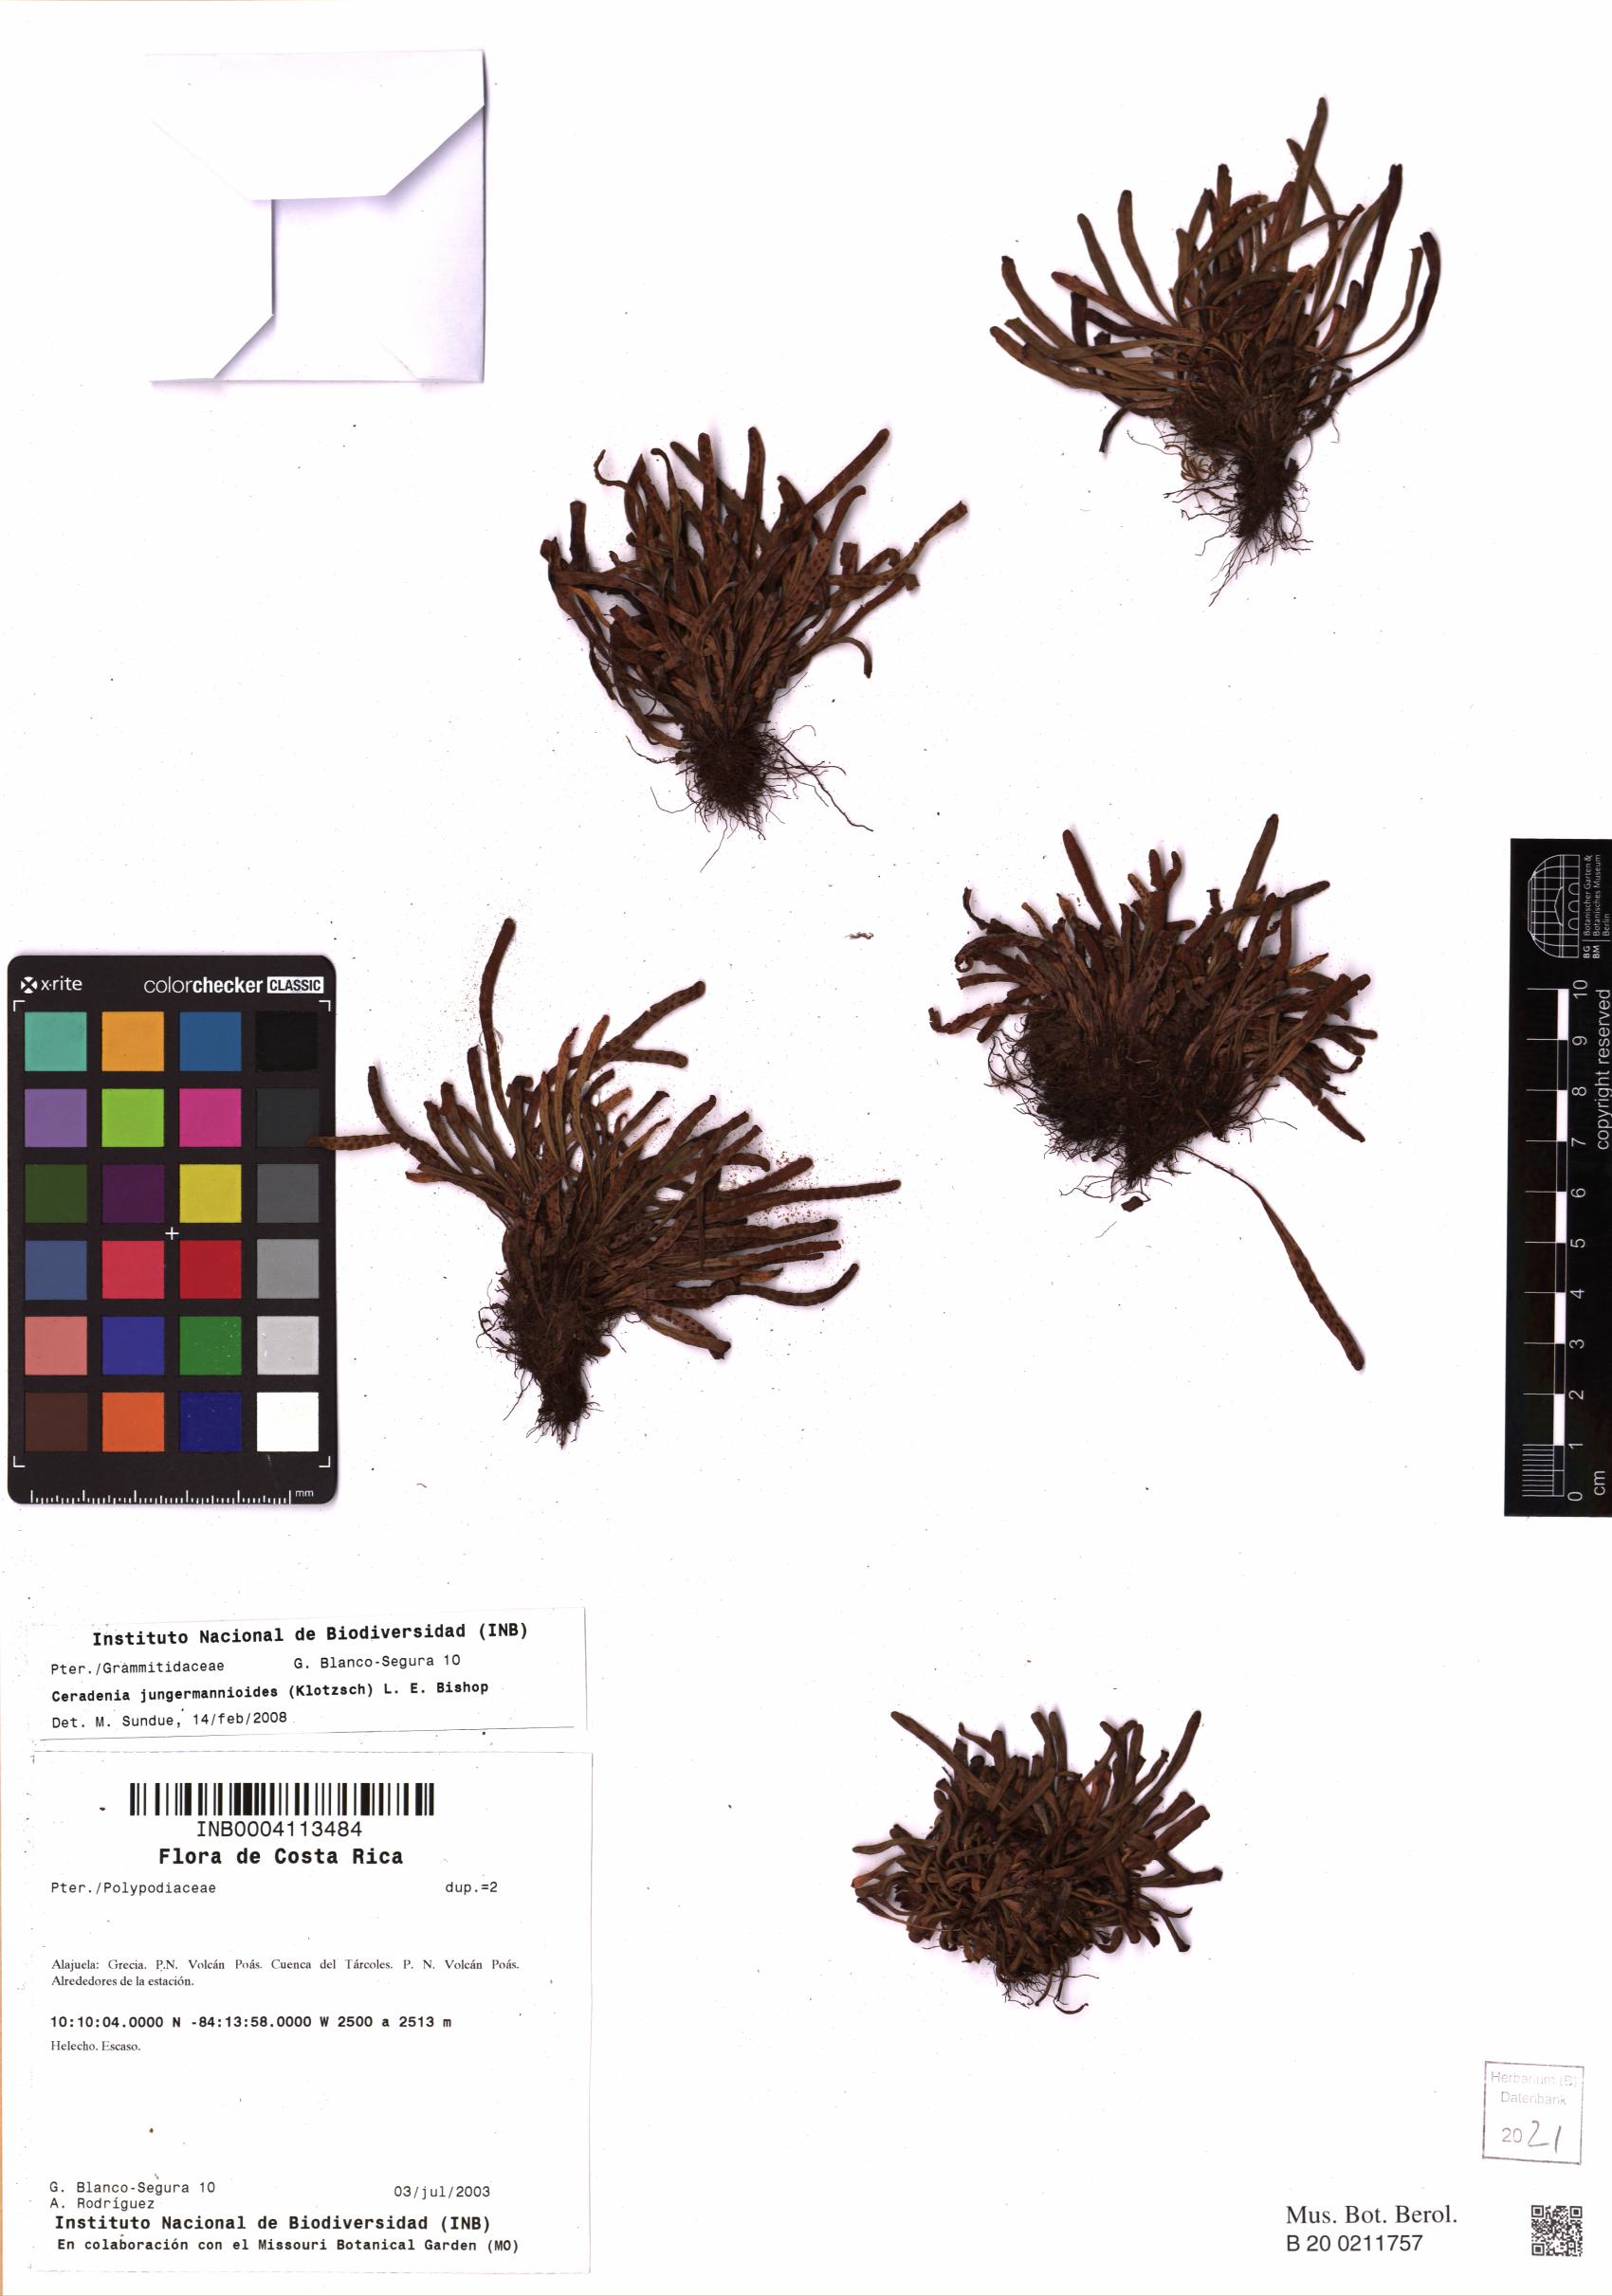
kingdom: Plantae
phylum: Tracheophyta
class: Polypodiopsida
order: Polypodiales
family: Polypodiaceae
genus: Ceradenia
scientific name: Ceradenia jungermannioides
